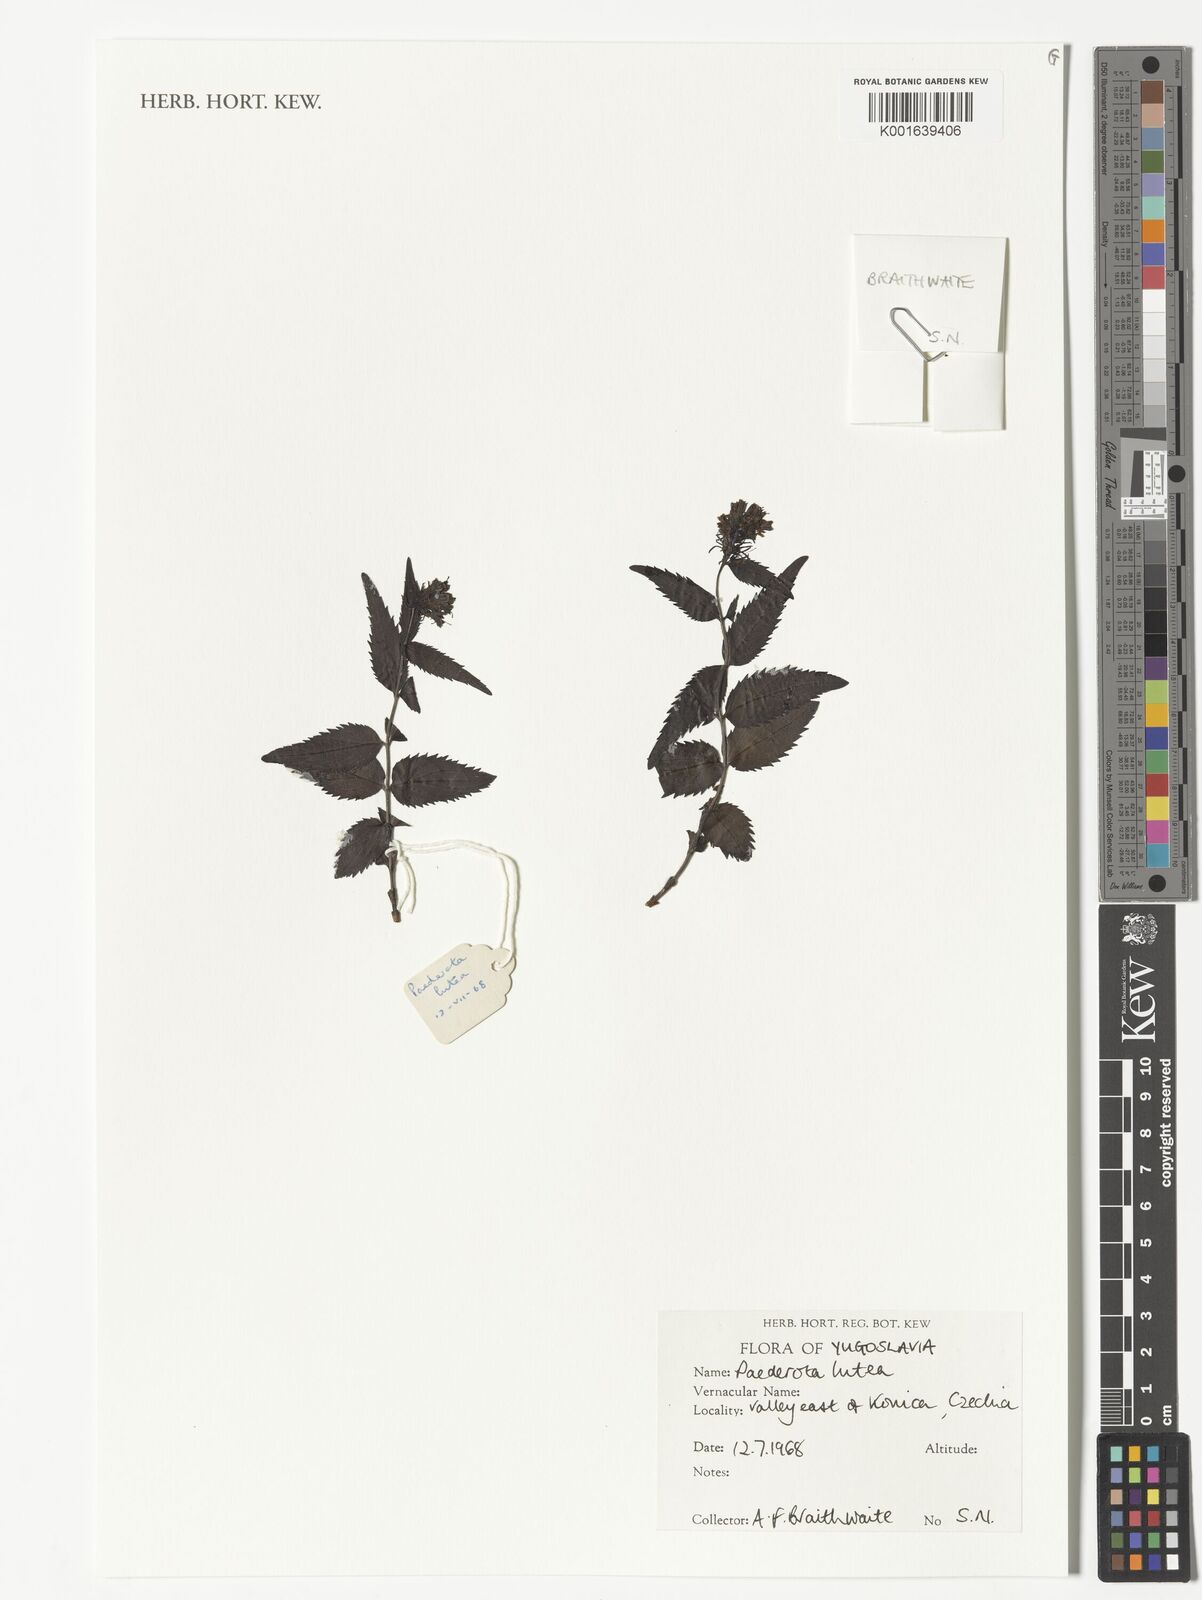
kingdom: Plantae
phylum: Tracheophyta
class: Magnoliopsida
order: Lamiales
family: Plantaginaceae
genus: Paederota
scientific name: Paederota
